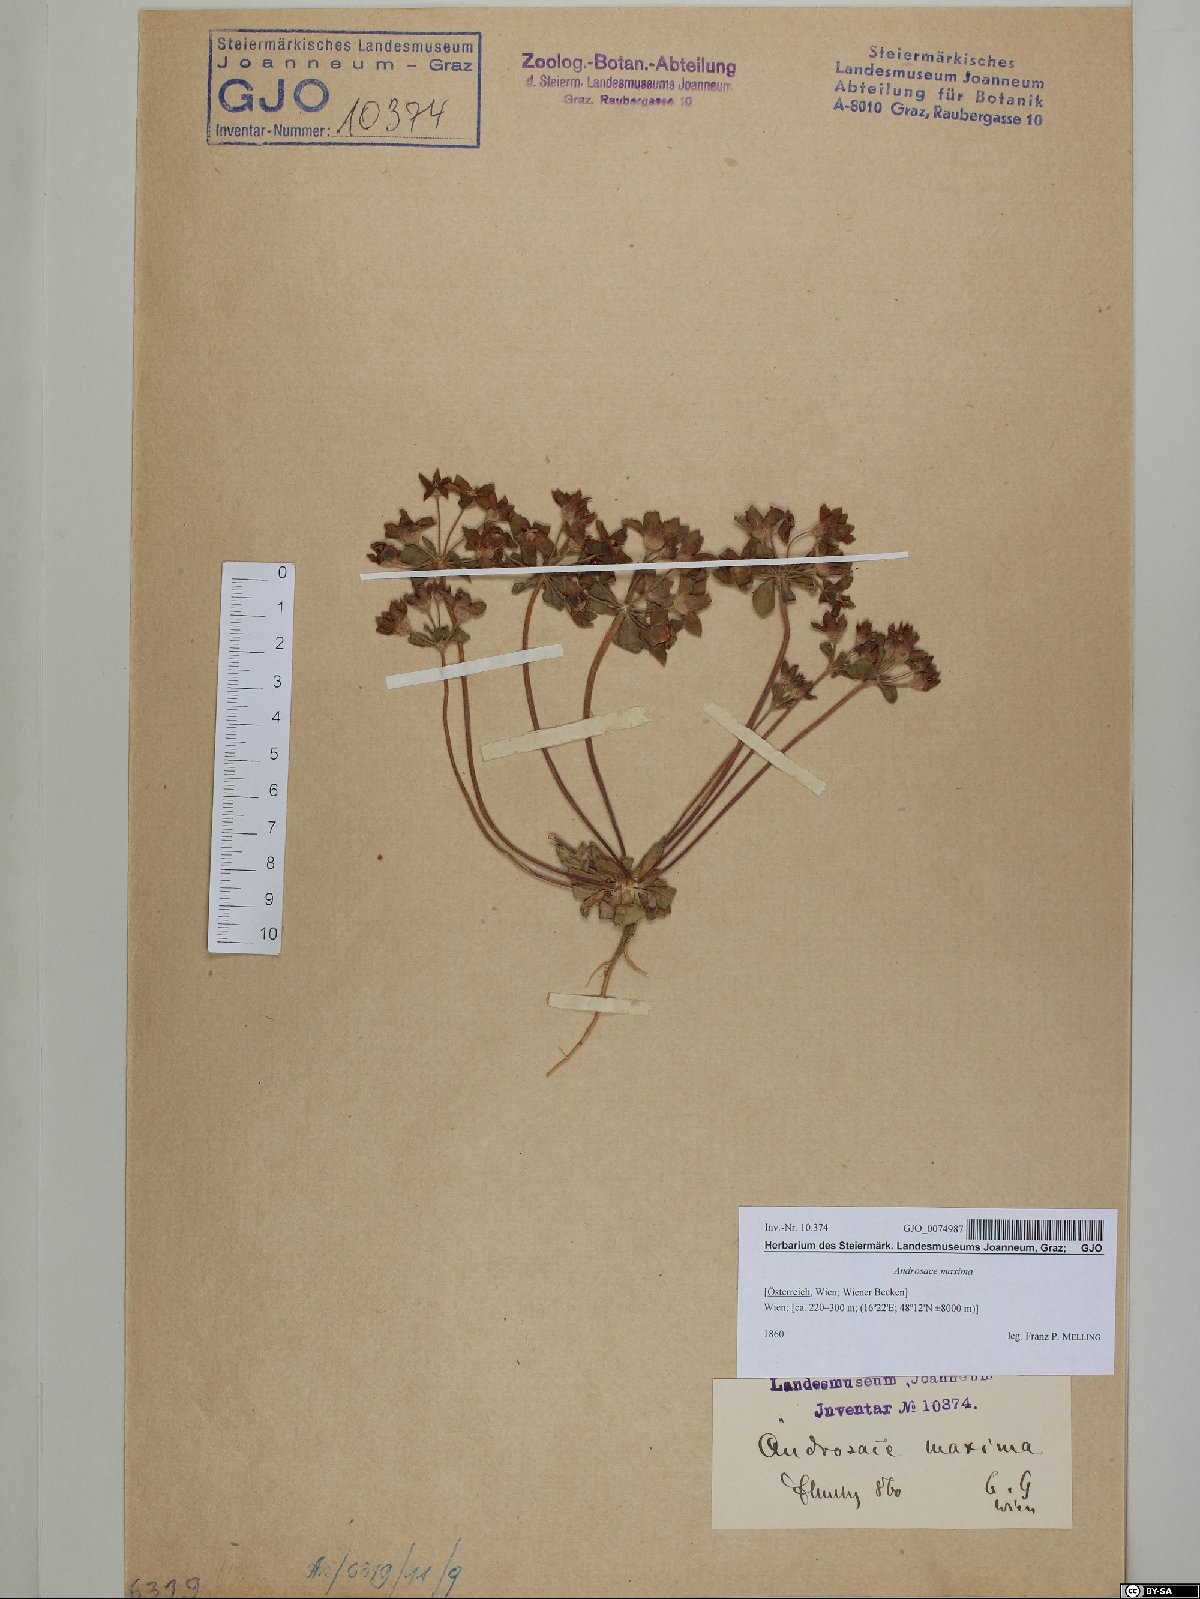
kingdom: Plantae
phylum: Tracheophyta
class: Magnoliopsida
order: Ericales
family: Primulaceae
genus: Androsace
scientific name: Androsace maxima
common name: Annual androsace
